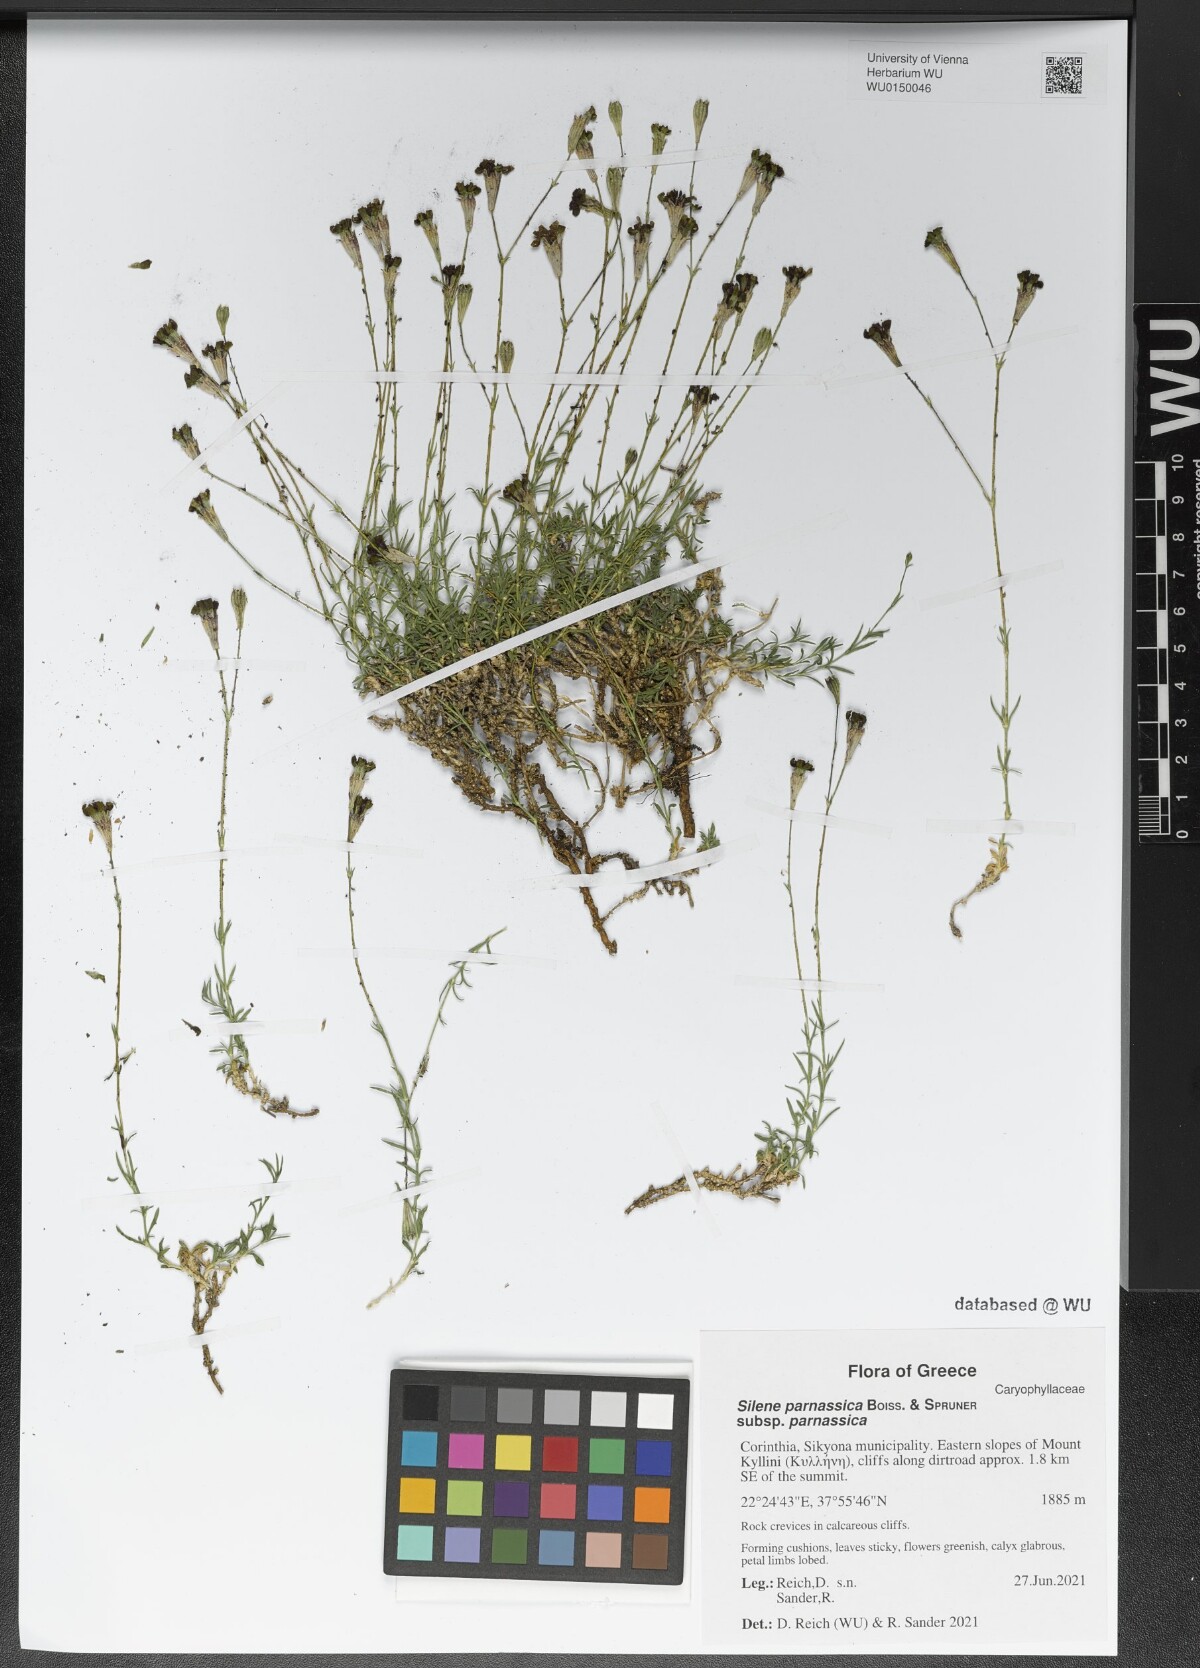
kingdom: Plantae
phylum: Tracheophyta
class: Magnoliopsida
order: Caryophyllales
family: Caryophyllaceae
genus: Silene
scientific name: Silene parnassica
